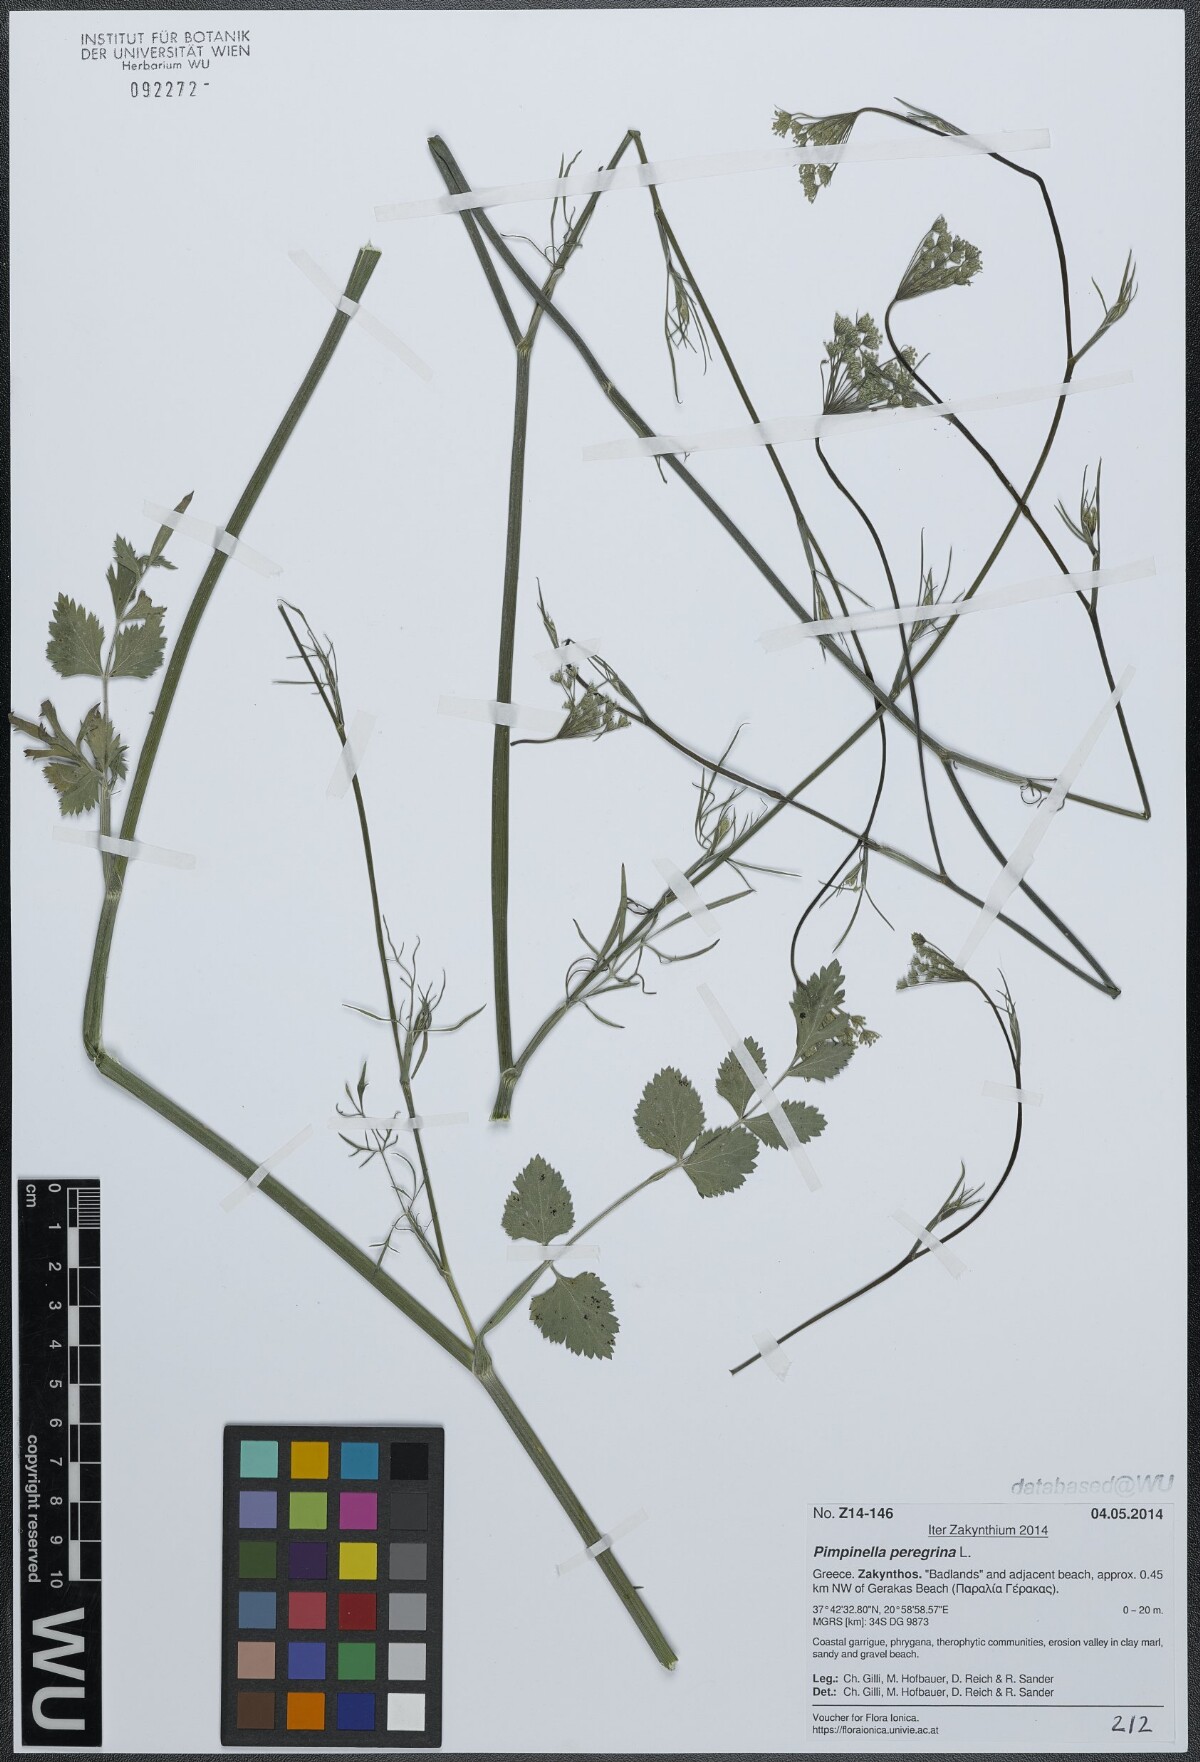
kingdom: Plantae
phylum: Tracheophyta
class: Magnoliopsida
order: Apiales
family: Apiaceae
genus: Pimpinella
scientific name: Pimpinella peregrina
